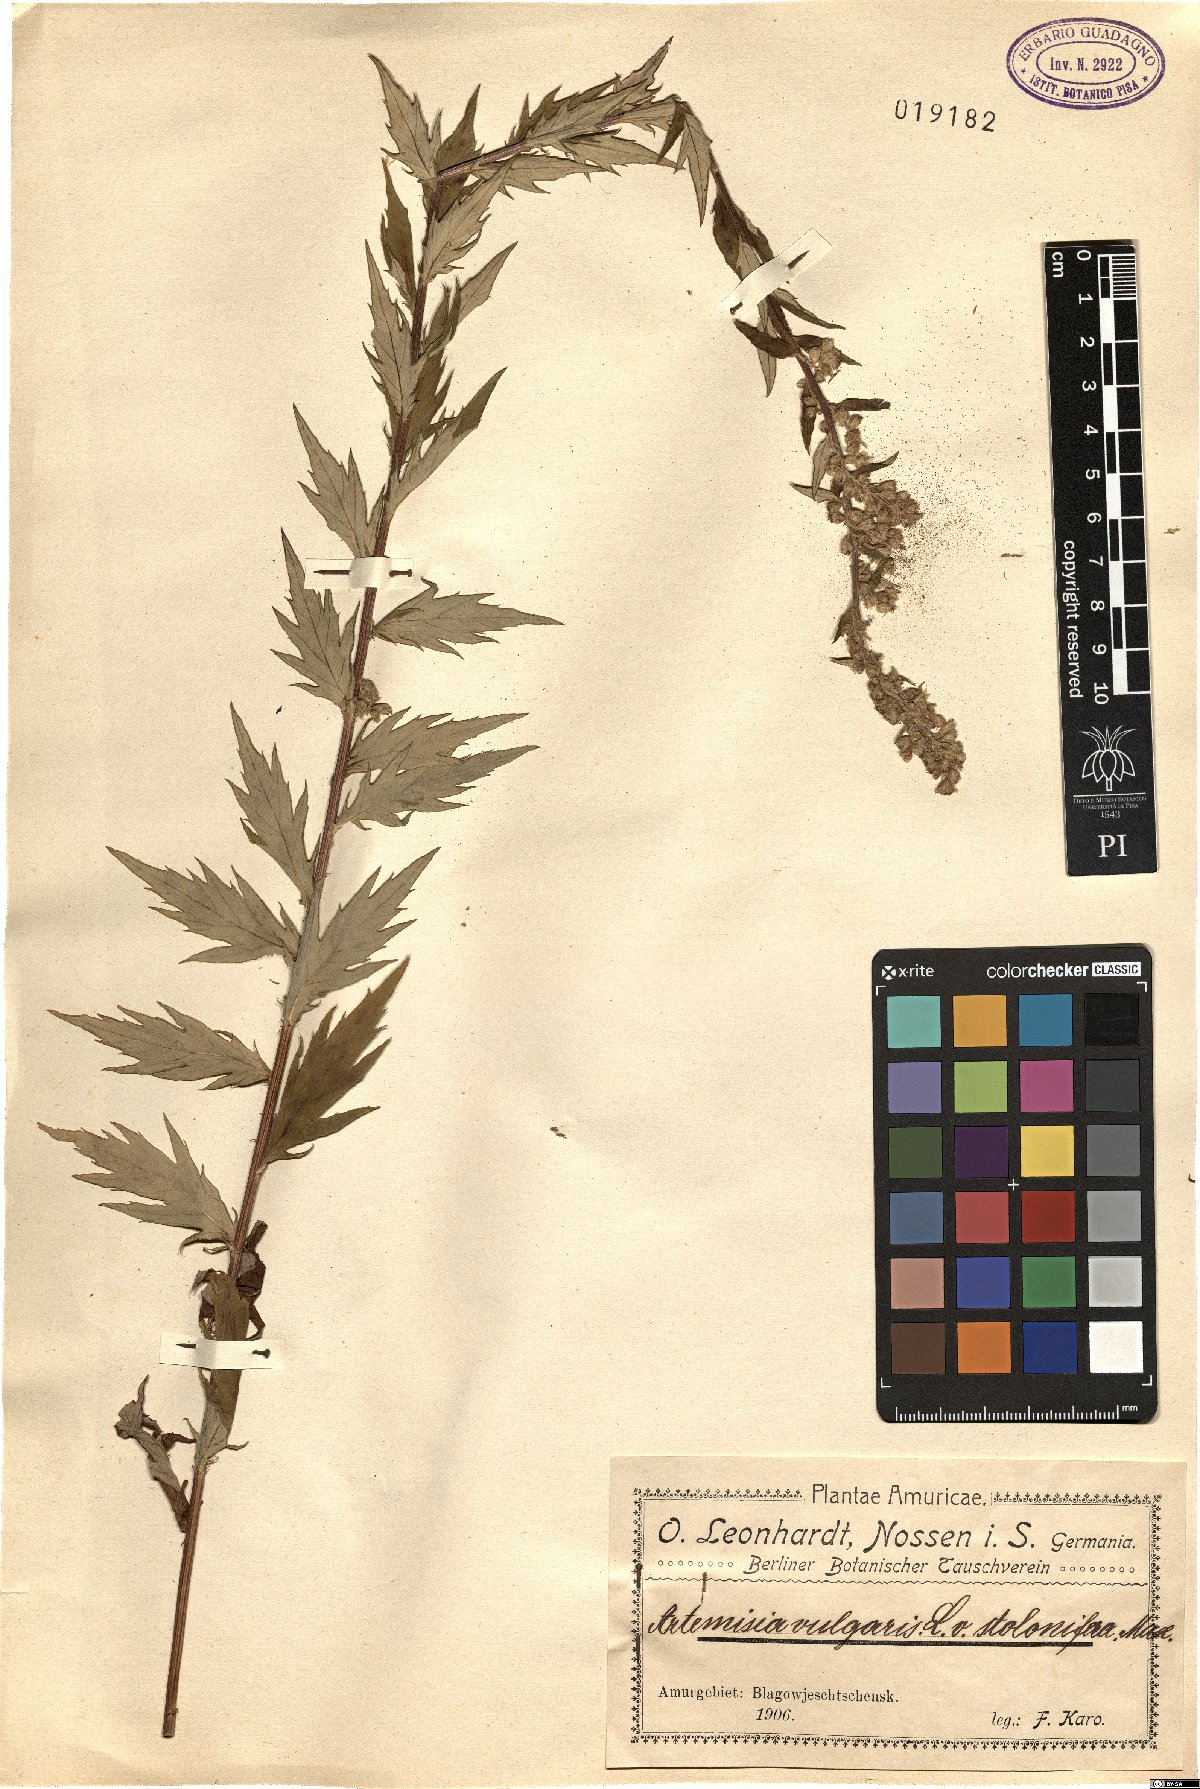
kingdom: Plantae
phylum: Tracheophyta
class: Magnoliopsida
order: Asterales
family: Asteraceae
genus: Artemisia
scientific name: Artemisia stolonifera
